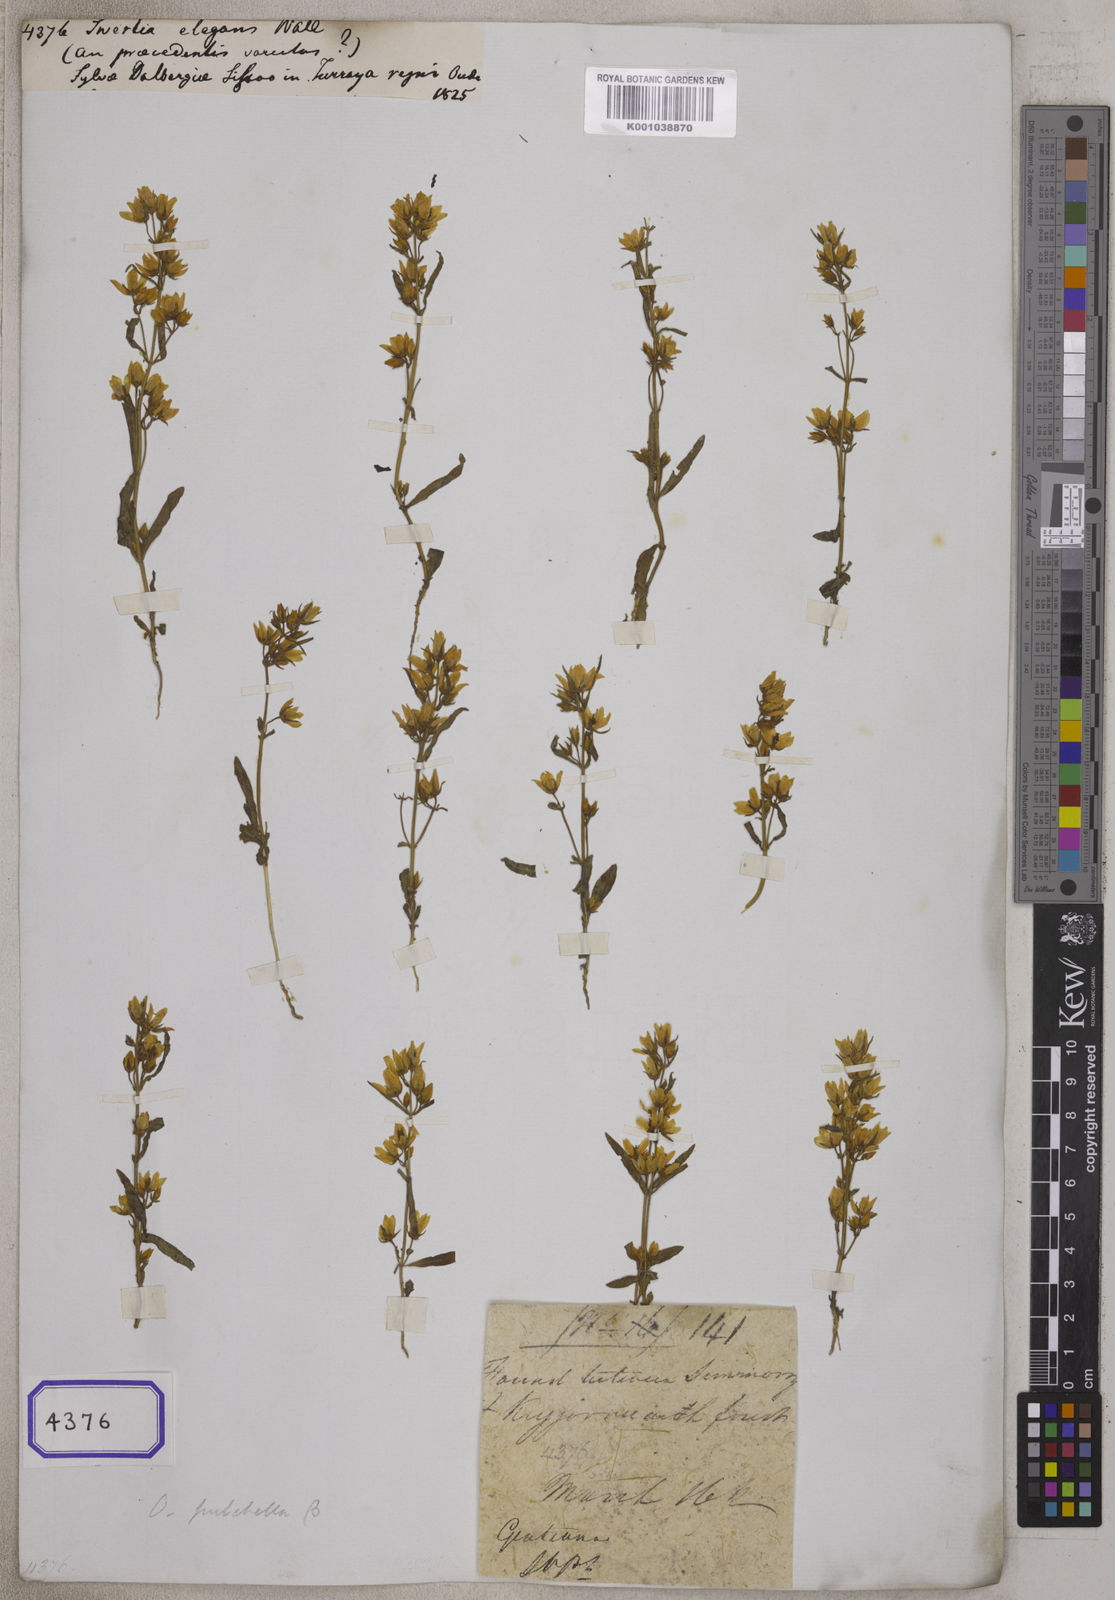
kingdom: Plantae
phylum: Tracheophyta
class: Magnoliopsida
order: Gentianales
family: Gentianaceae
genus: Swertia
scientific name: Swertia angustifolia
